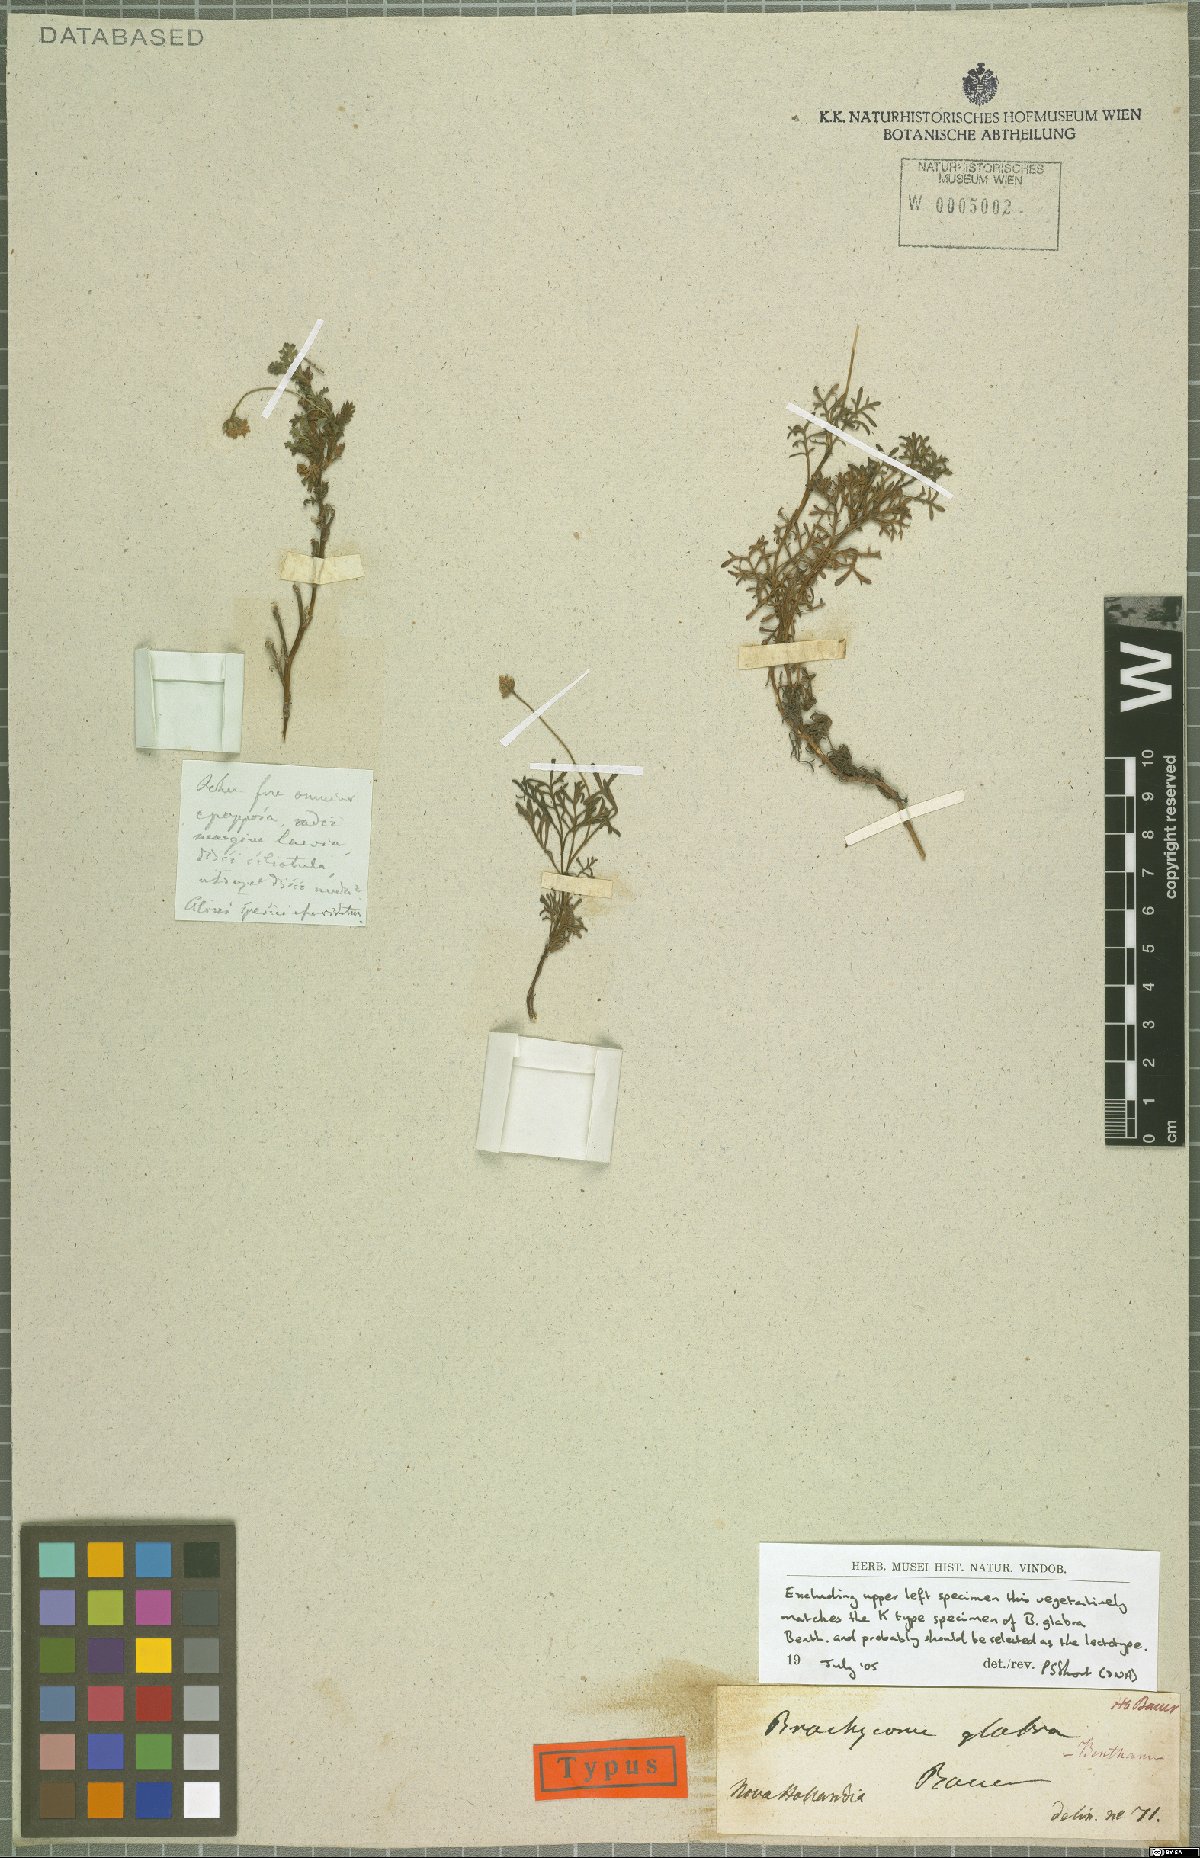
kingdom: Plantae
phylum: Tracheophyta
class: Magnoliopsida
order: Asterales
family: Asteraceae
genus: Brachyscome
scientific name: Brachyscome multifida
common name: Cut-leaf daisy
